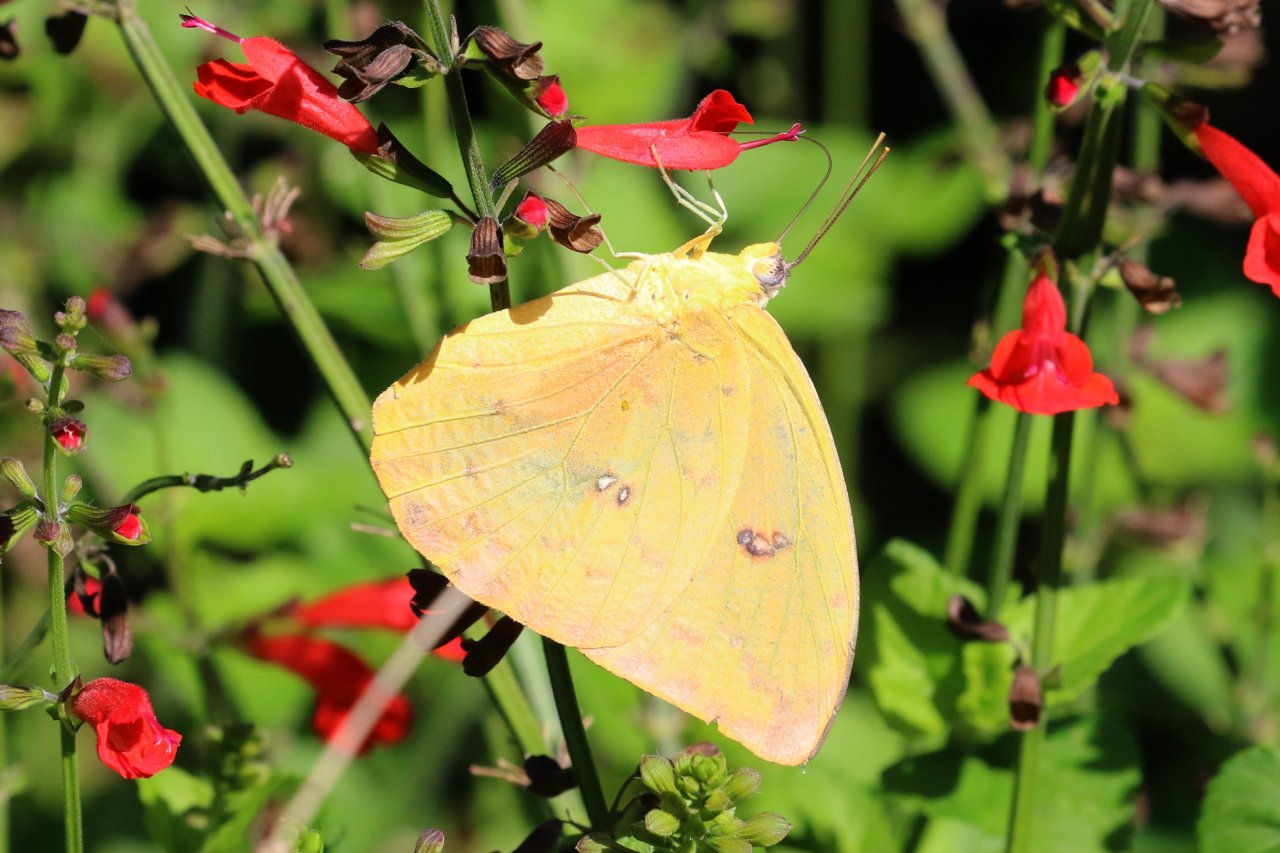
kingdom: Animalia
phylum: Arthropoda
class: Insecta
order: Lepidoptera
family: Pieridae
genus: Phoebis
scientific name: Phoebis philea
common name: Orange-barred Sulphur
